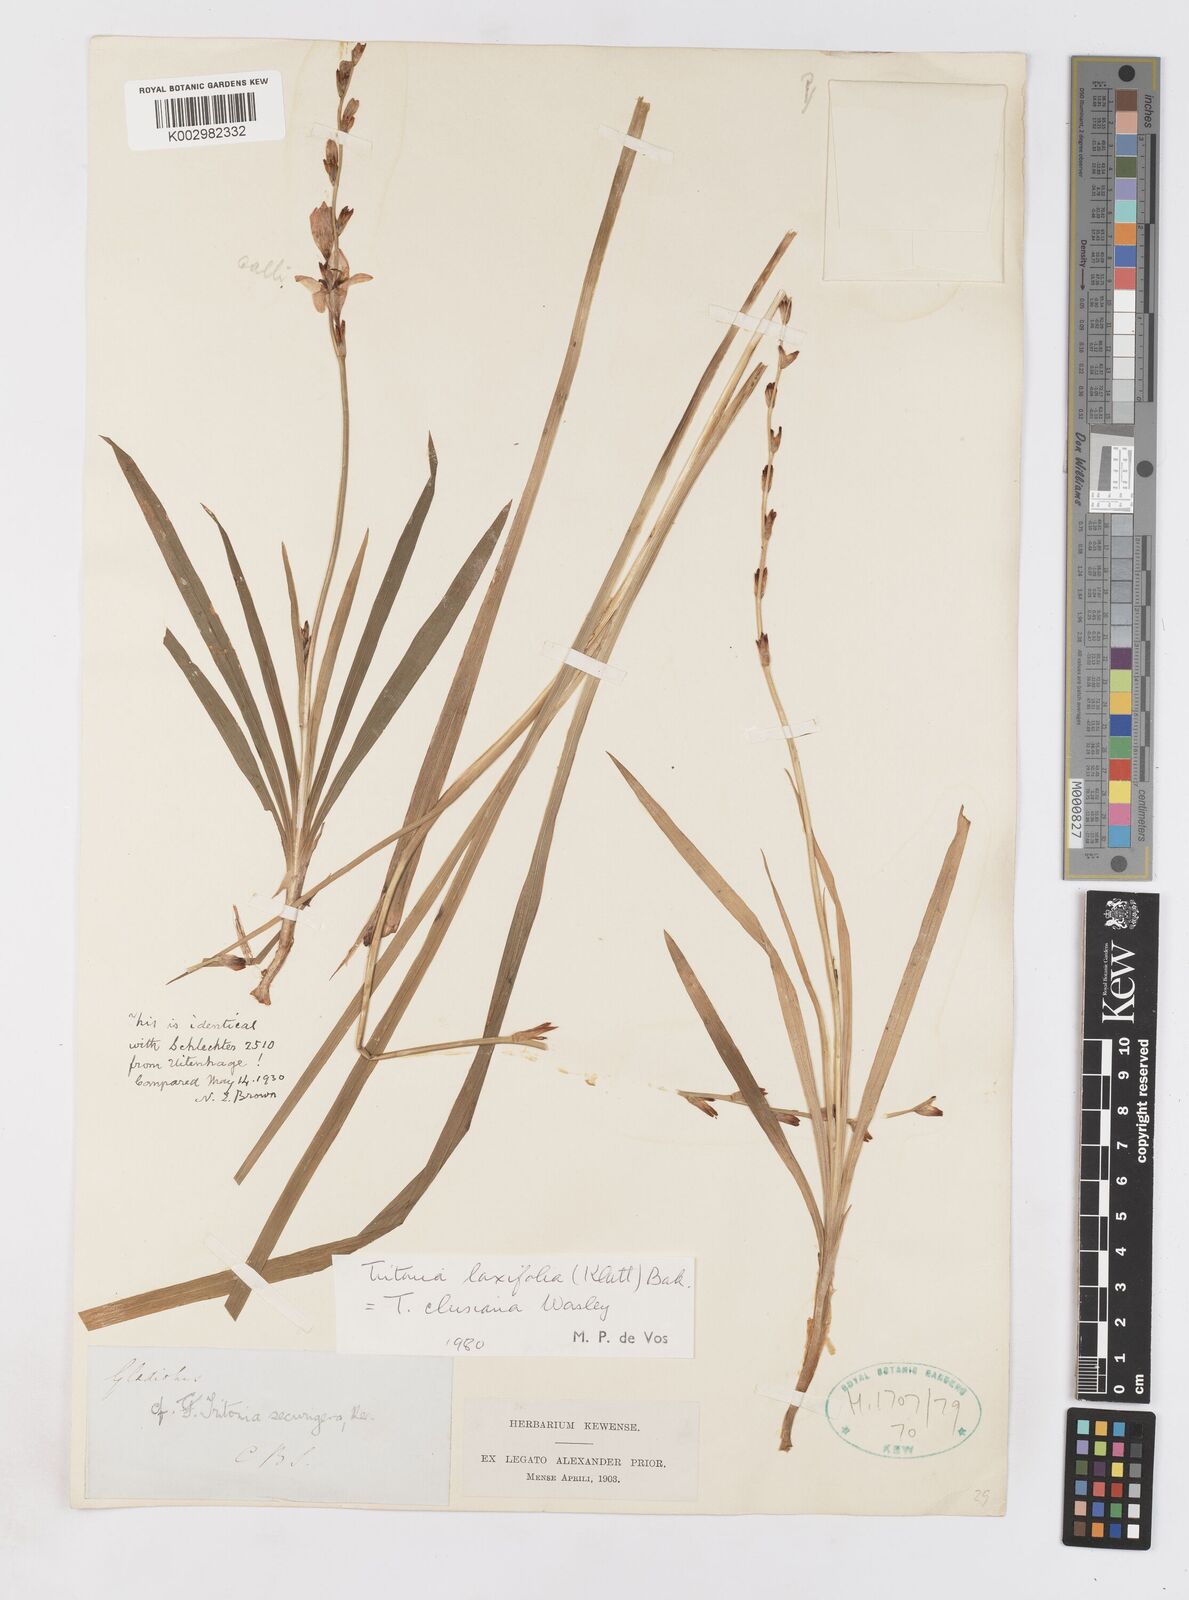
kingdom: Plantae
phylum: Tracheophyta
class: Liliopsida
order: Asparagales
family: Iridaceae
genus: Tritonia
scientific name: Tritonia laxifolia
